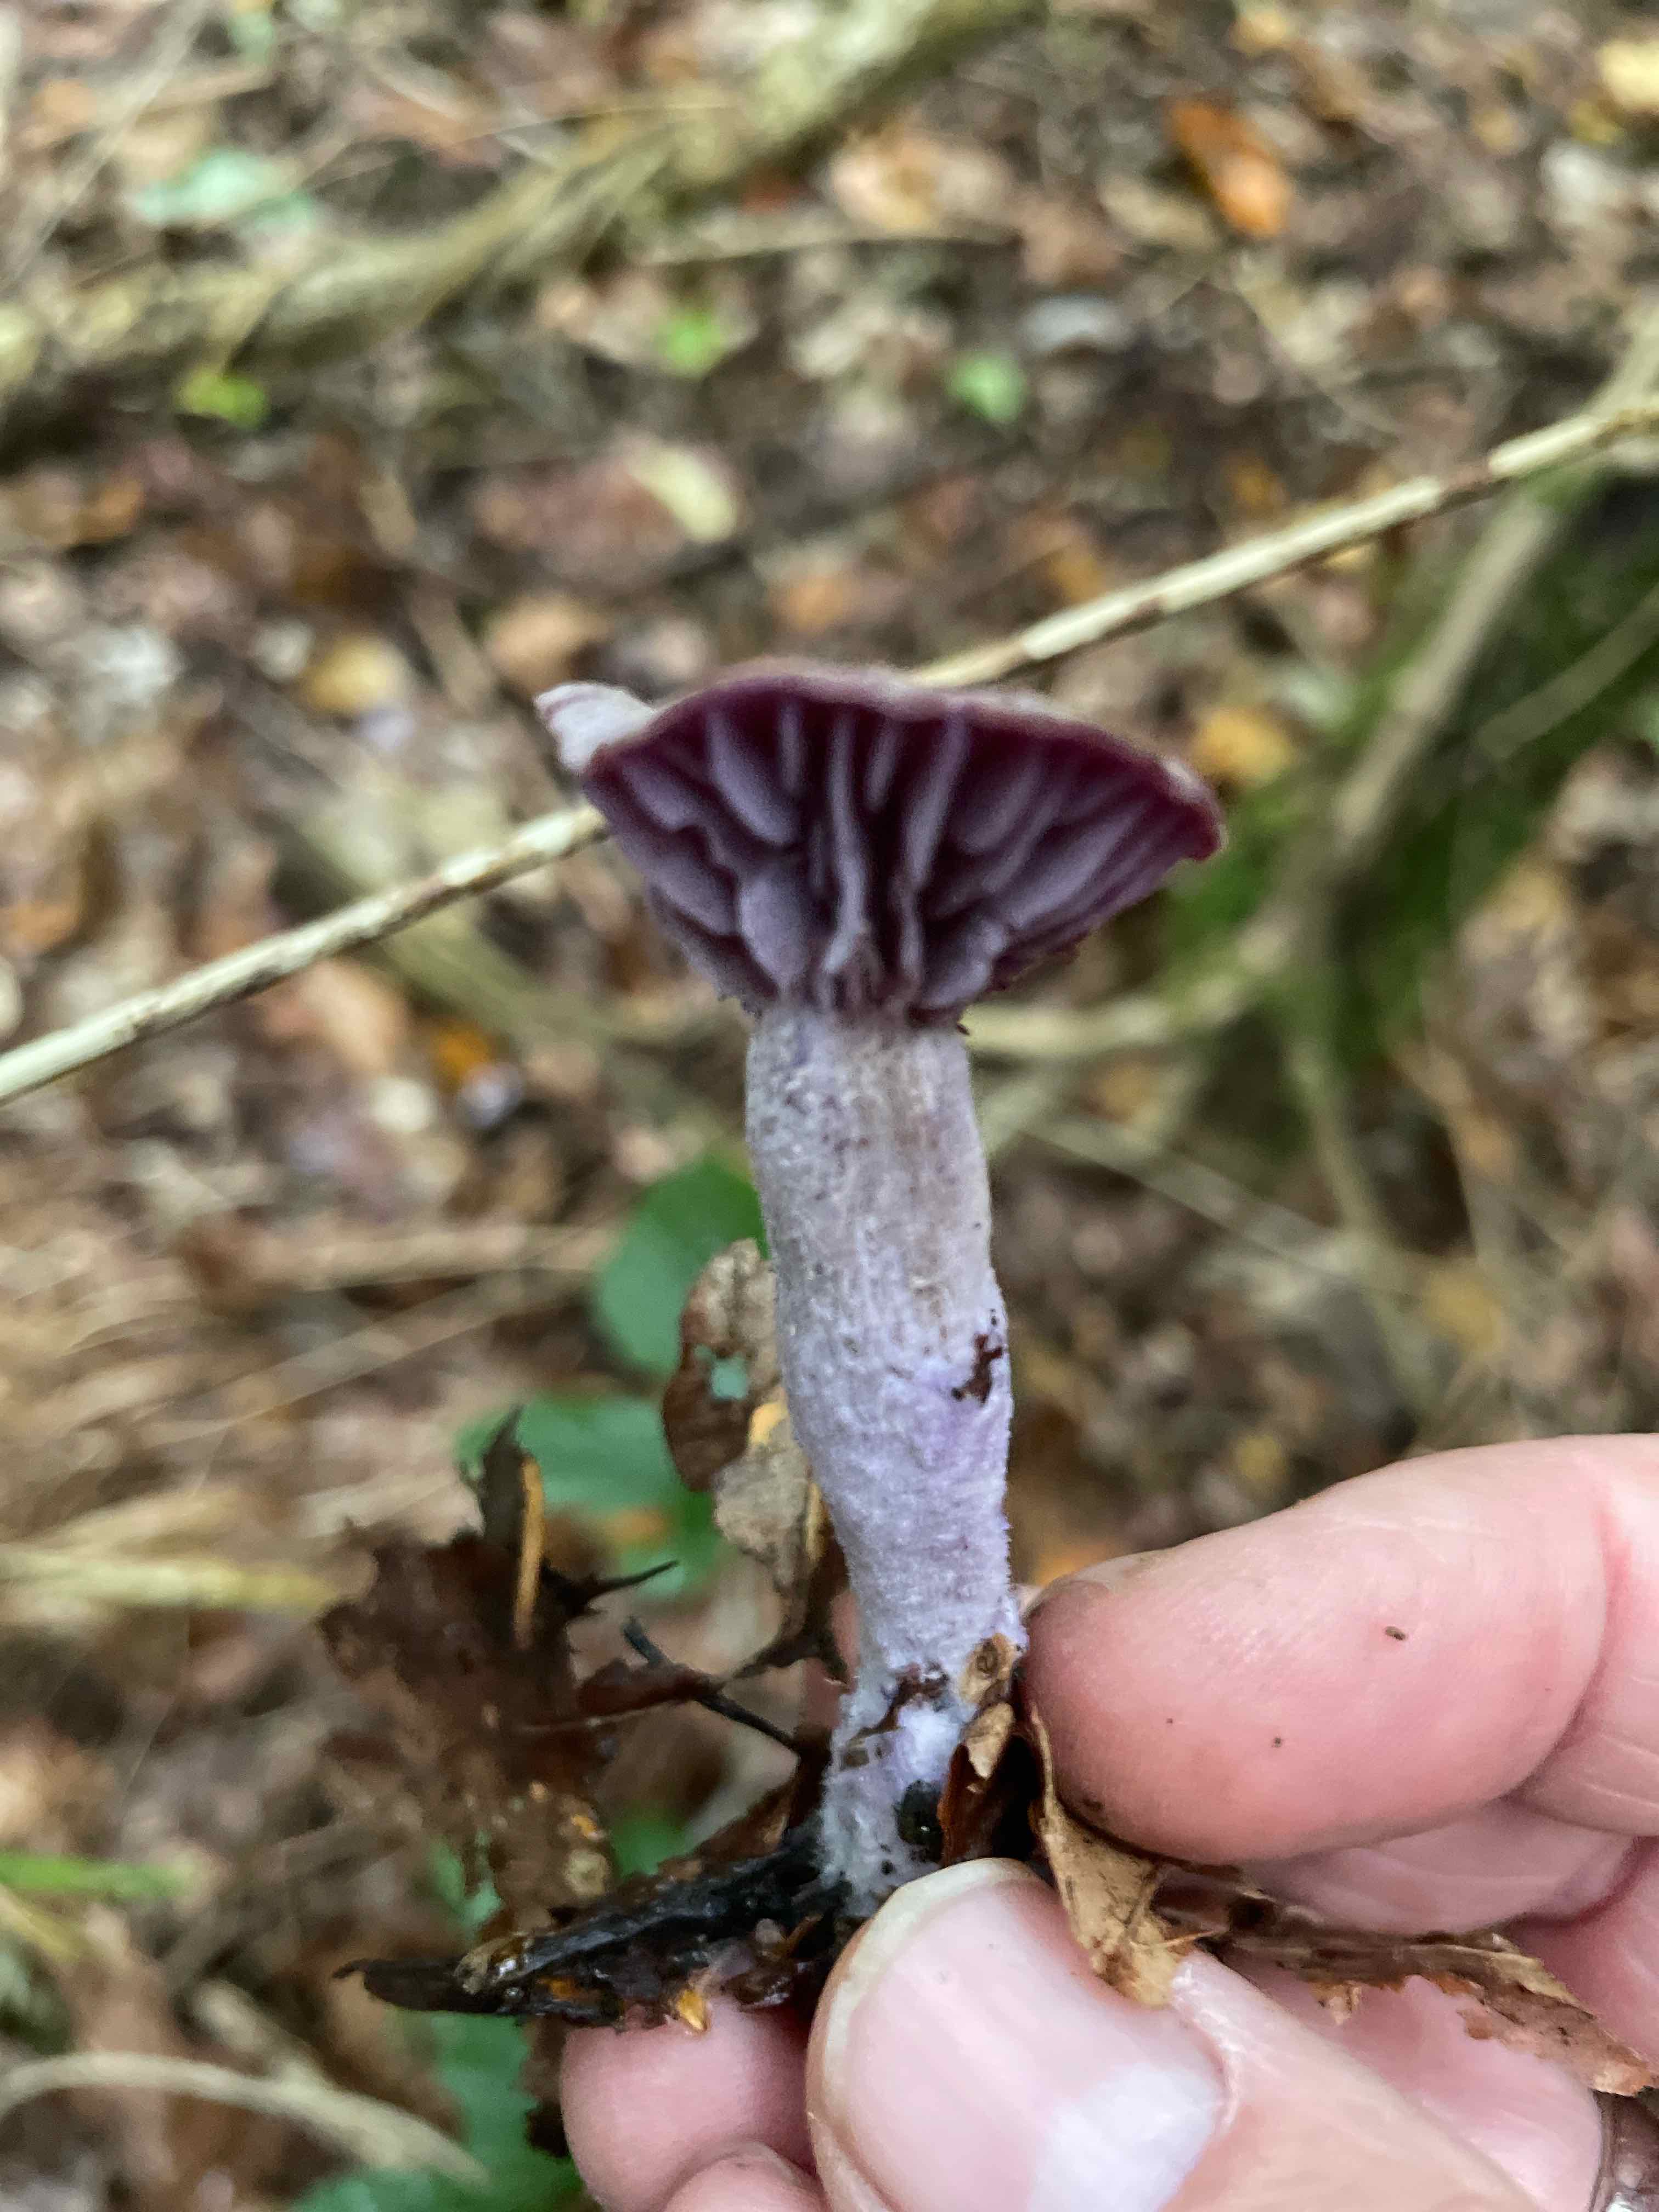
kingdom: Fungi
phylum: Basidiomycota
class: Agaricomycetes
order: Agaricales
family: Hydnangiaceae
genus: Laccaria
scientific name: Laccaria amethystina
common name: violet ametysthat
